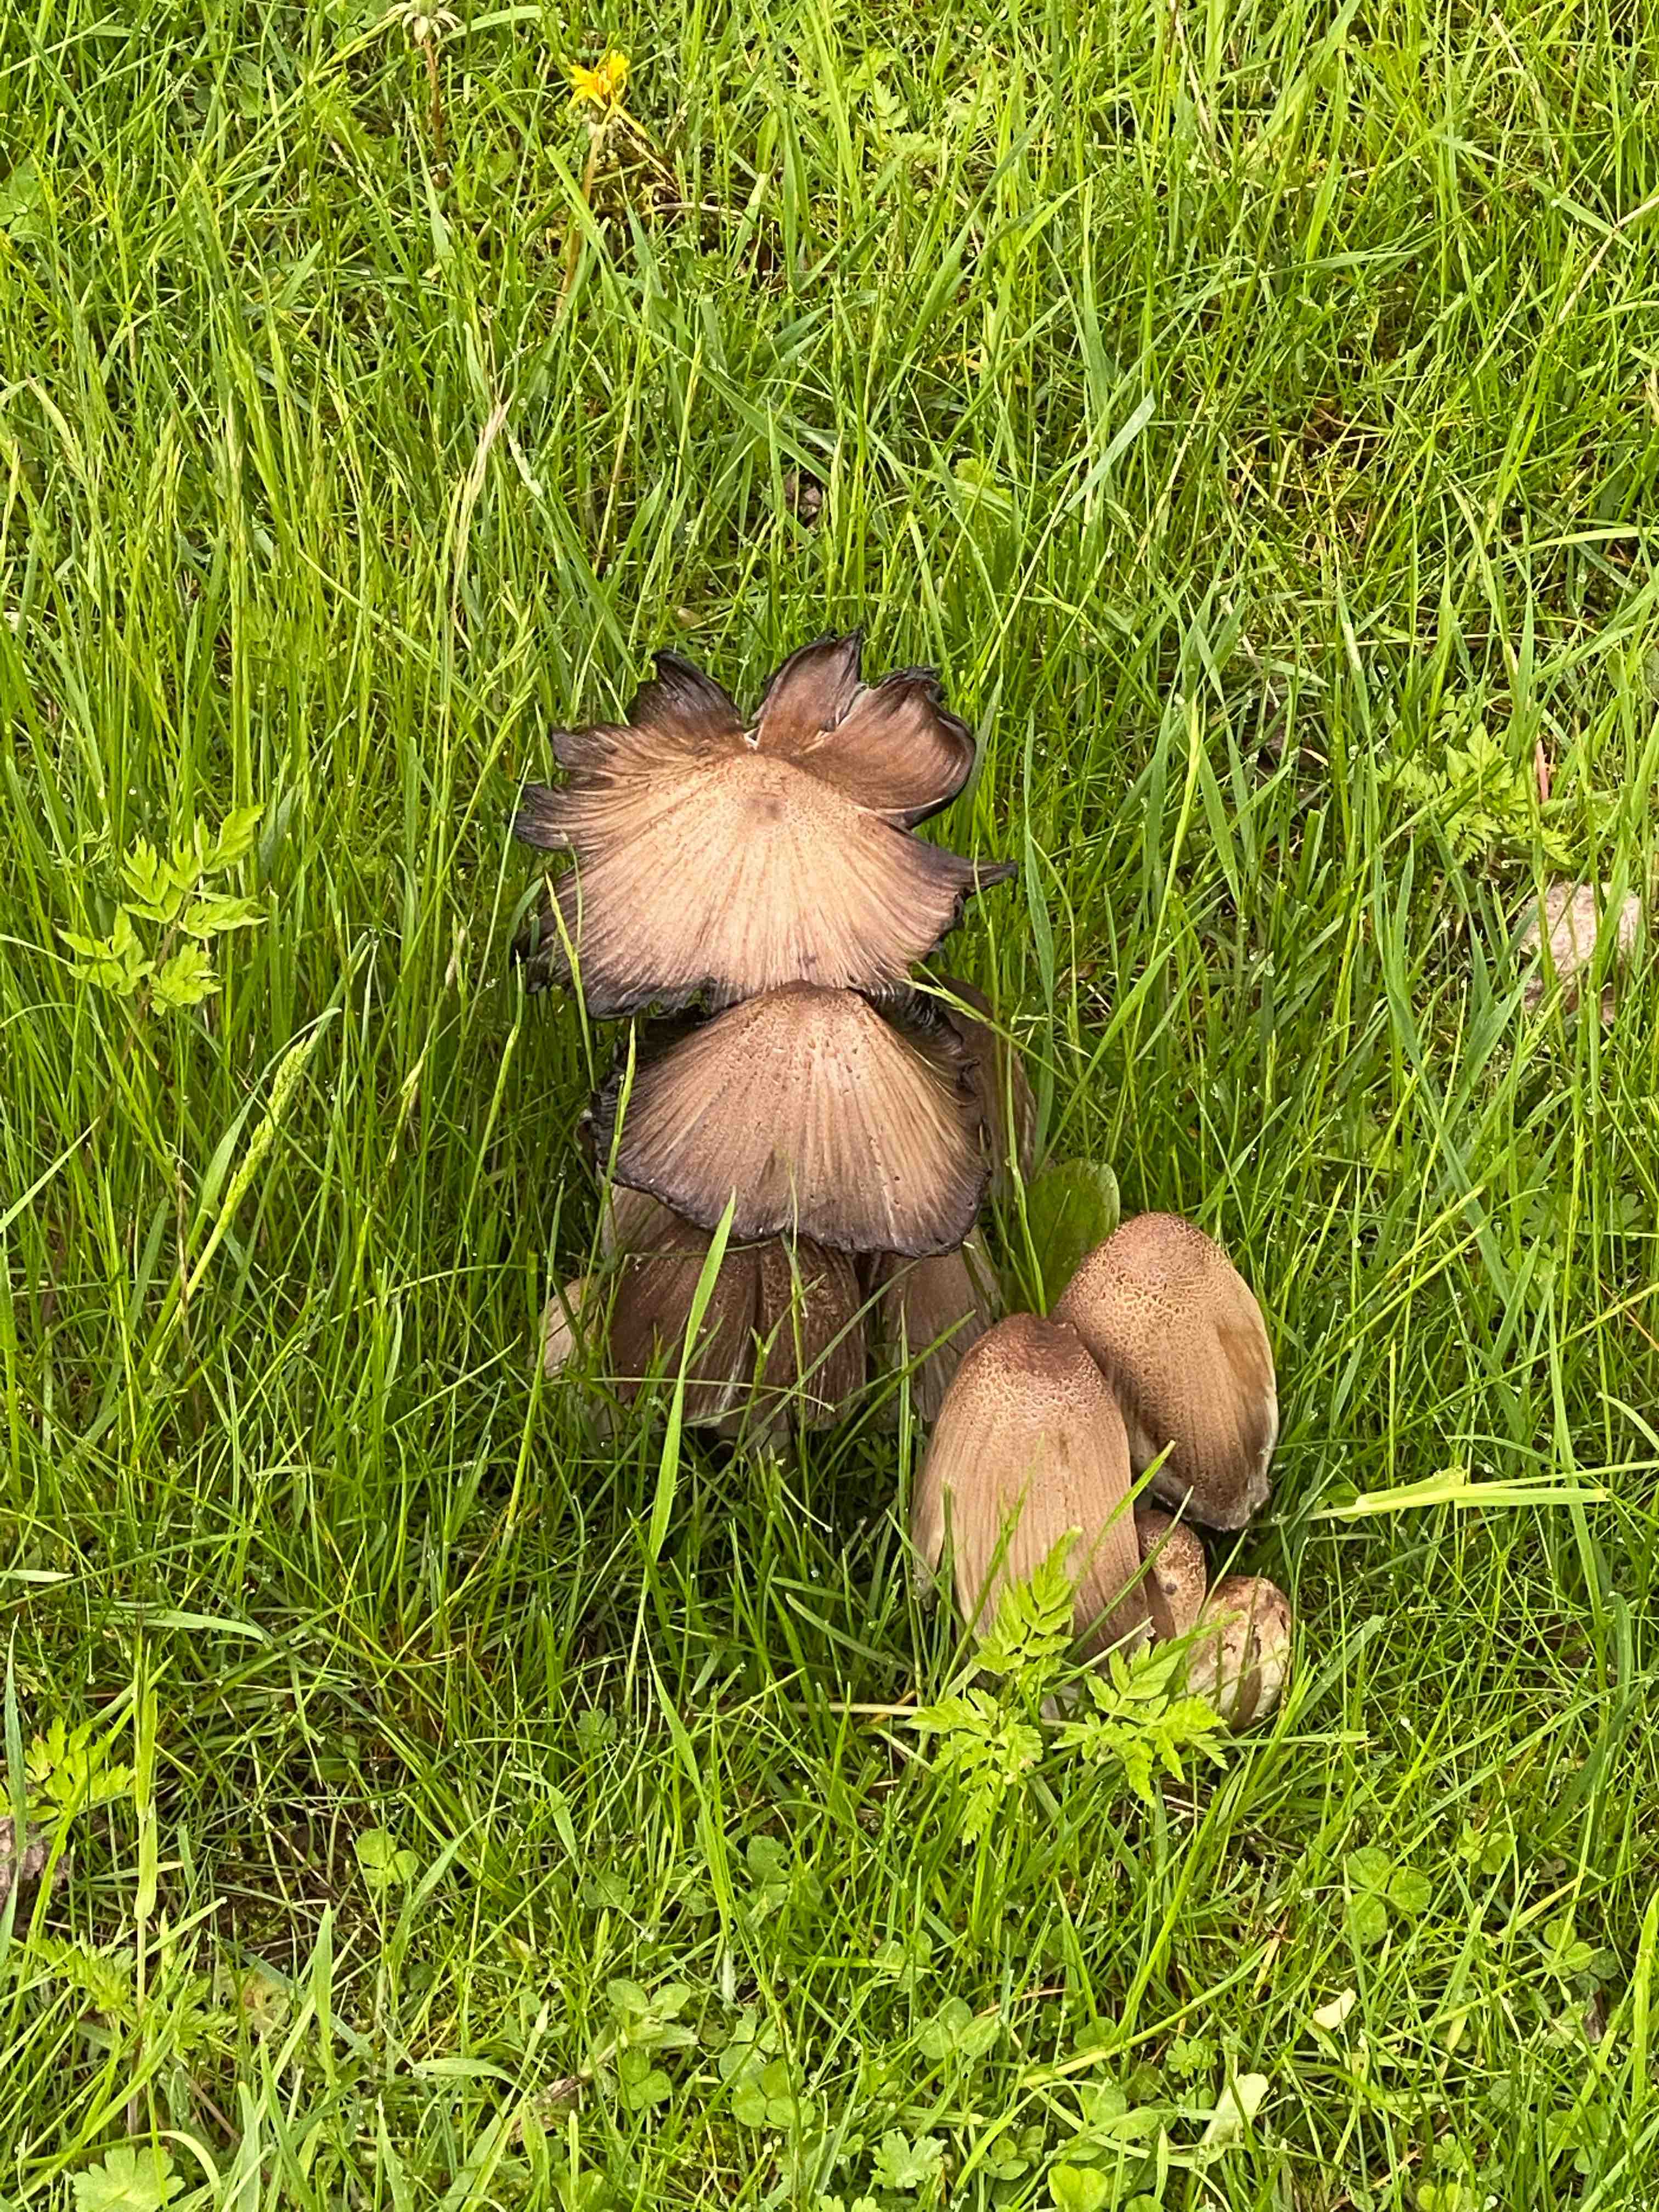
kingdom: Fungi
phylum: Basidiomycota
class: Agaricomycetes
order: Agaricales
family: Psathyrellaceae
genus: Coprinopsis
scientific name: Coprinopsis atramentaria
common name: almindelig blækhat
